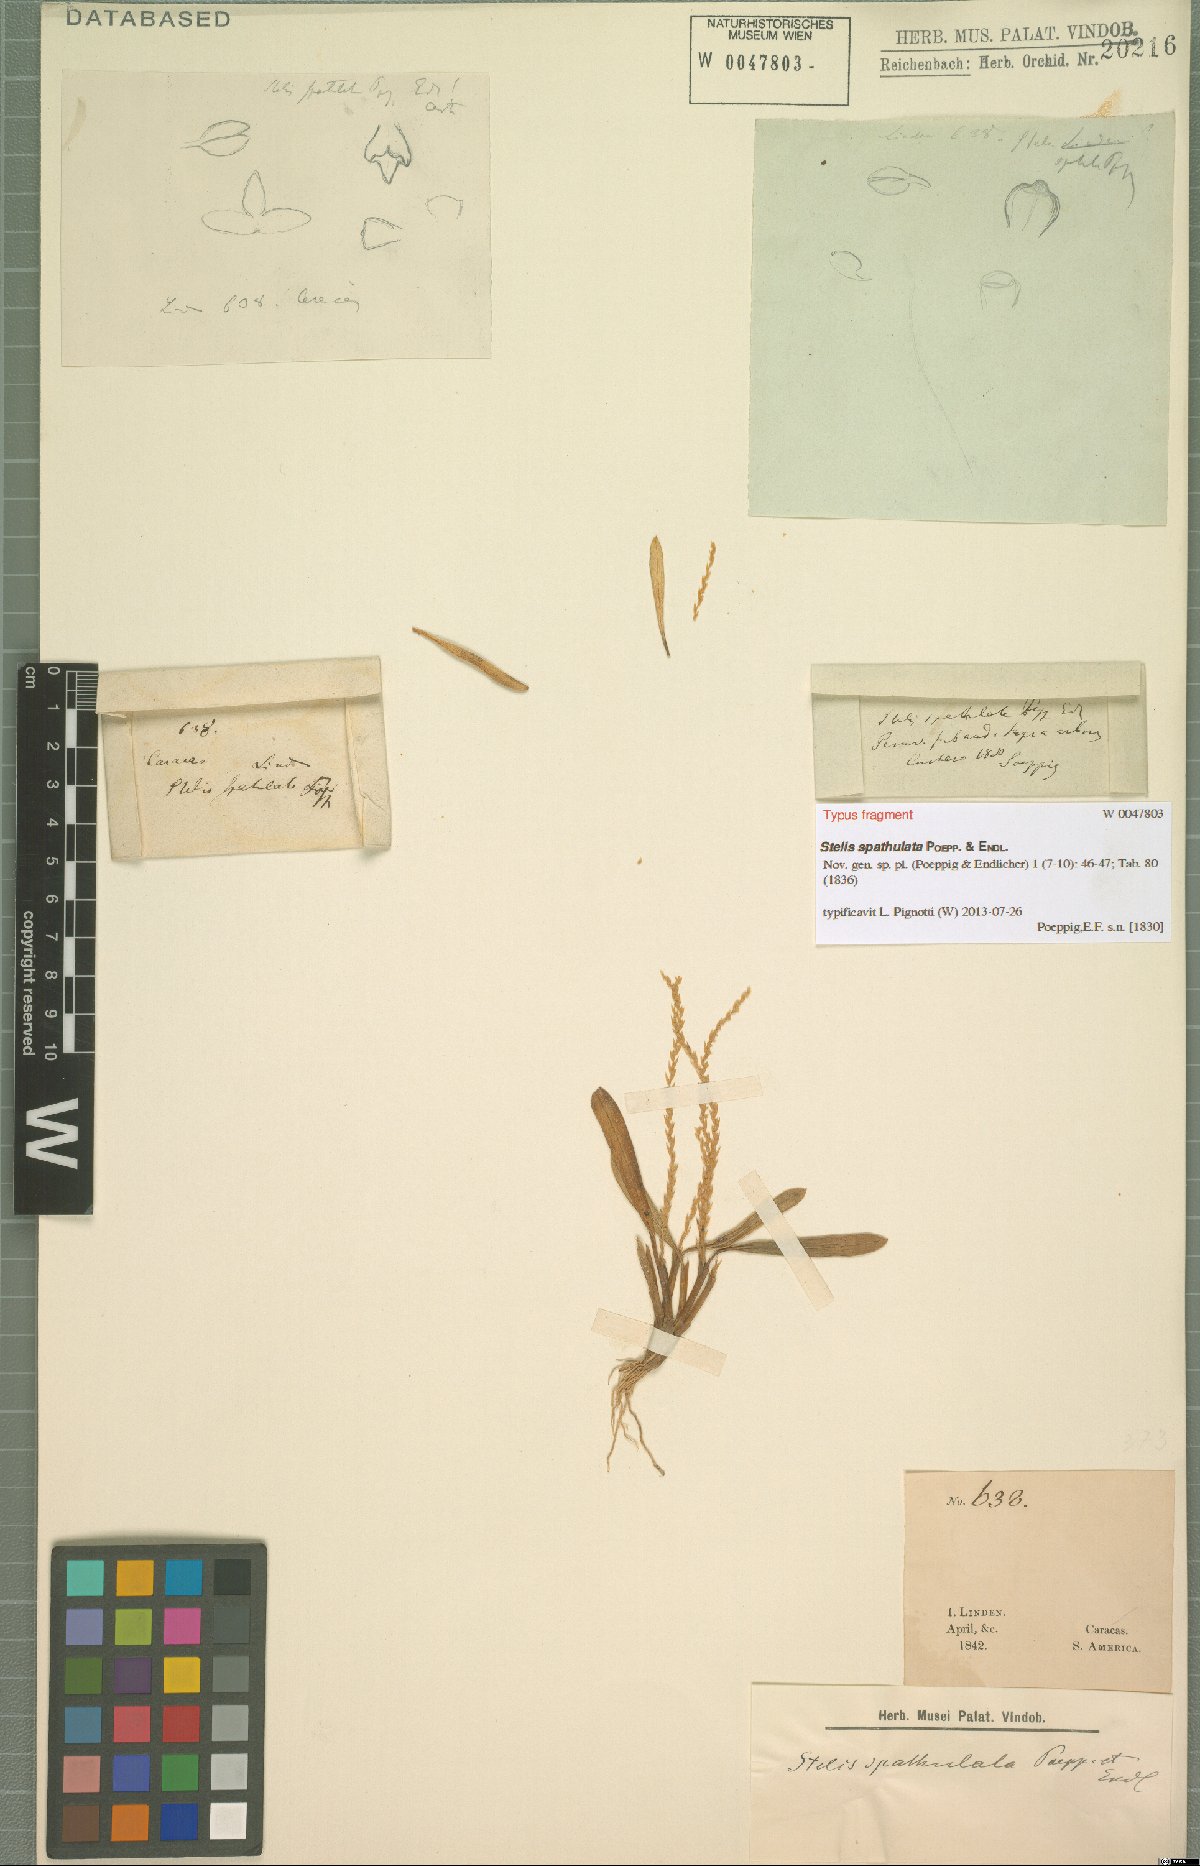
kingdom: Plantae
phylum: Tracheophyta
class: Liliopsida
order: Asparagales
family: Orchidaceae
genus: Stelis
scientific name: Stelis spathulata
